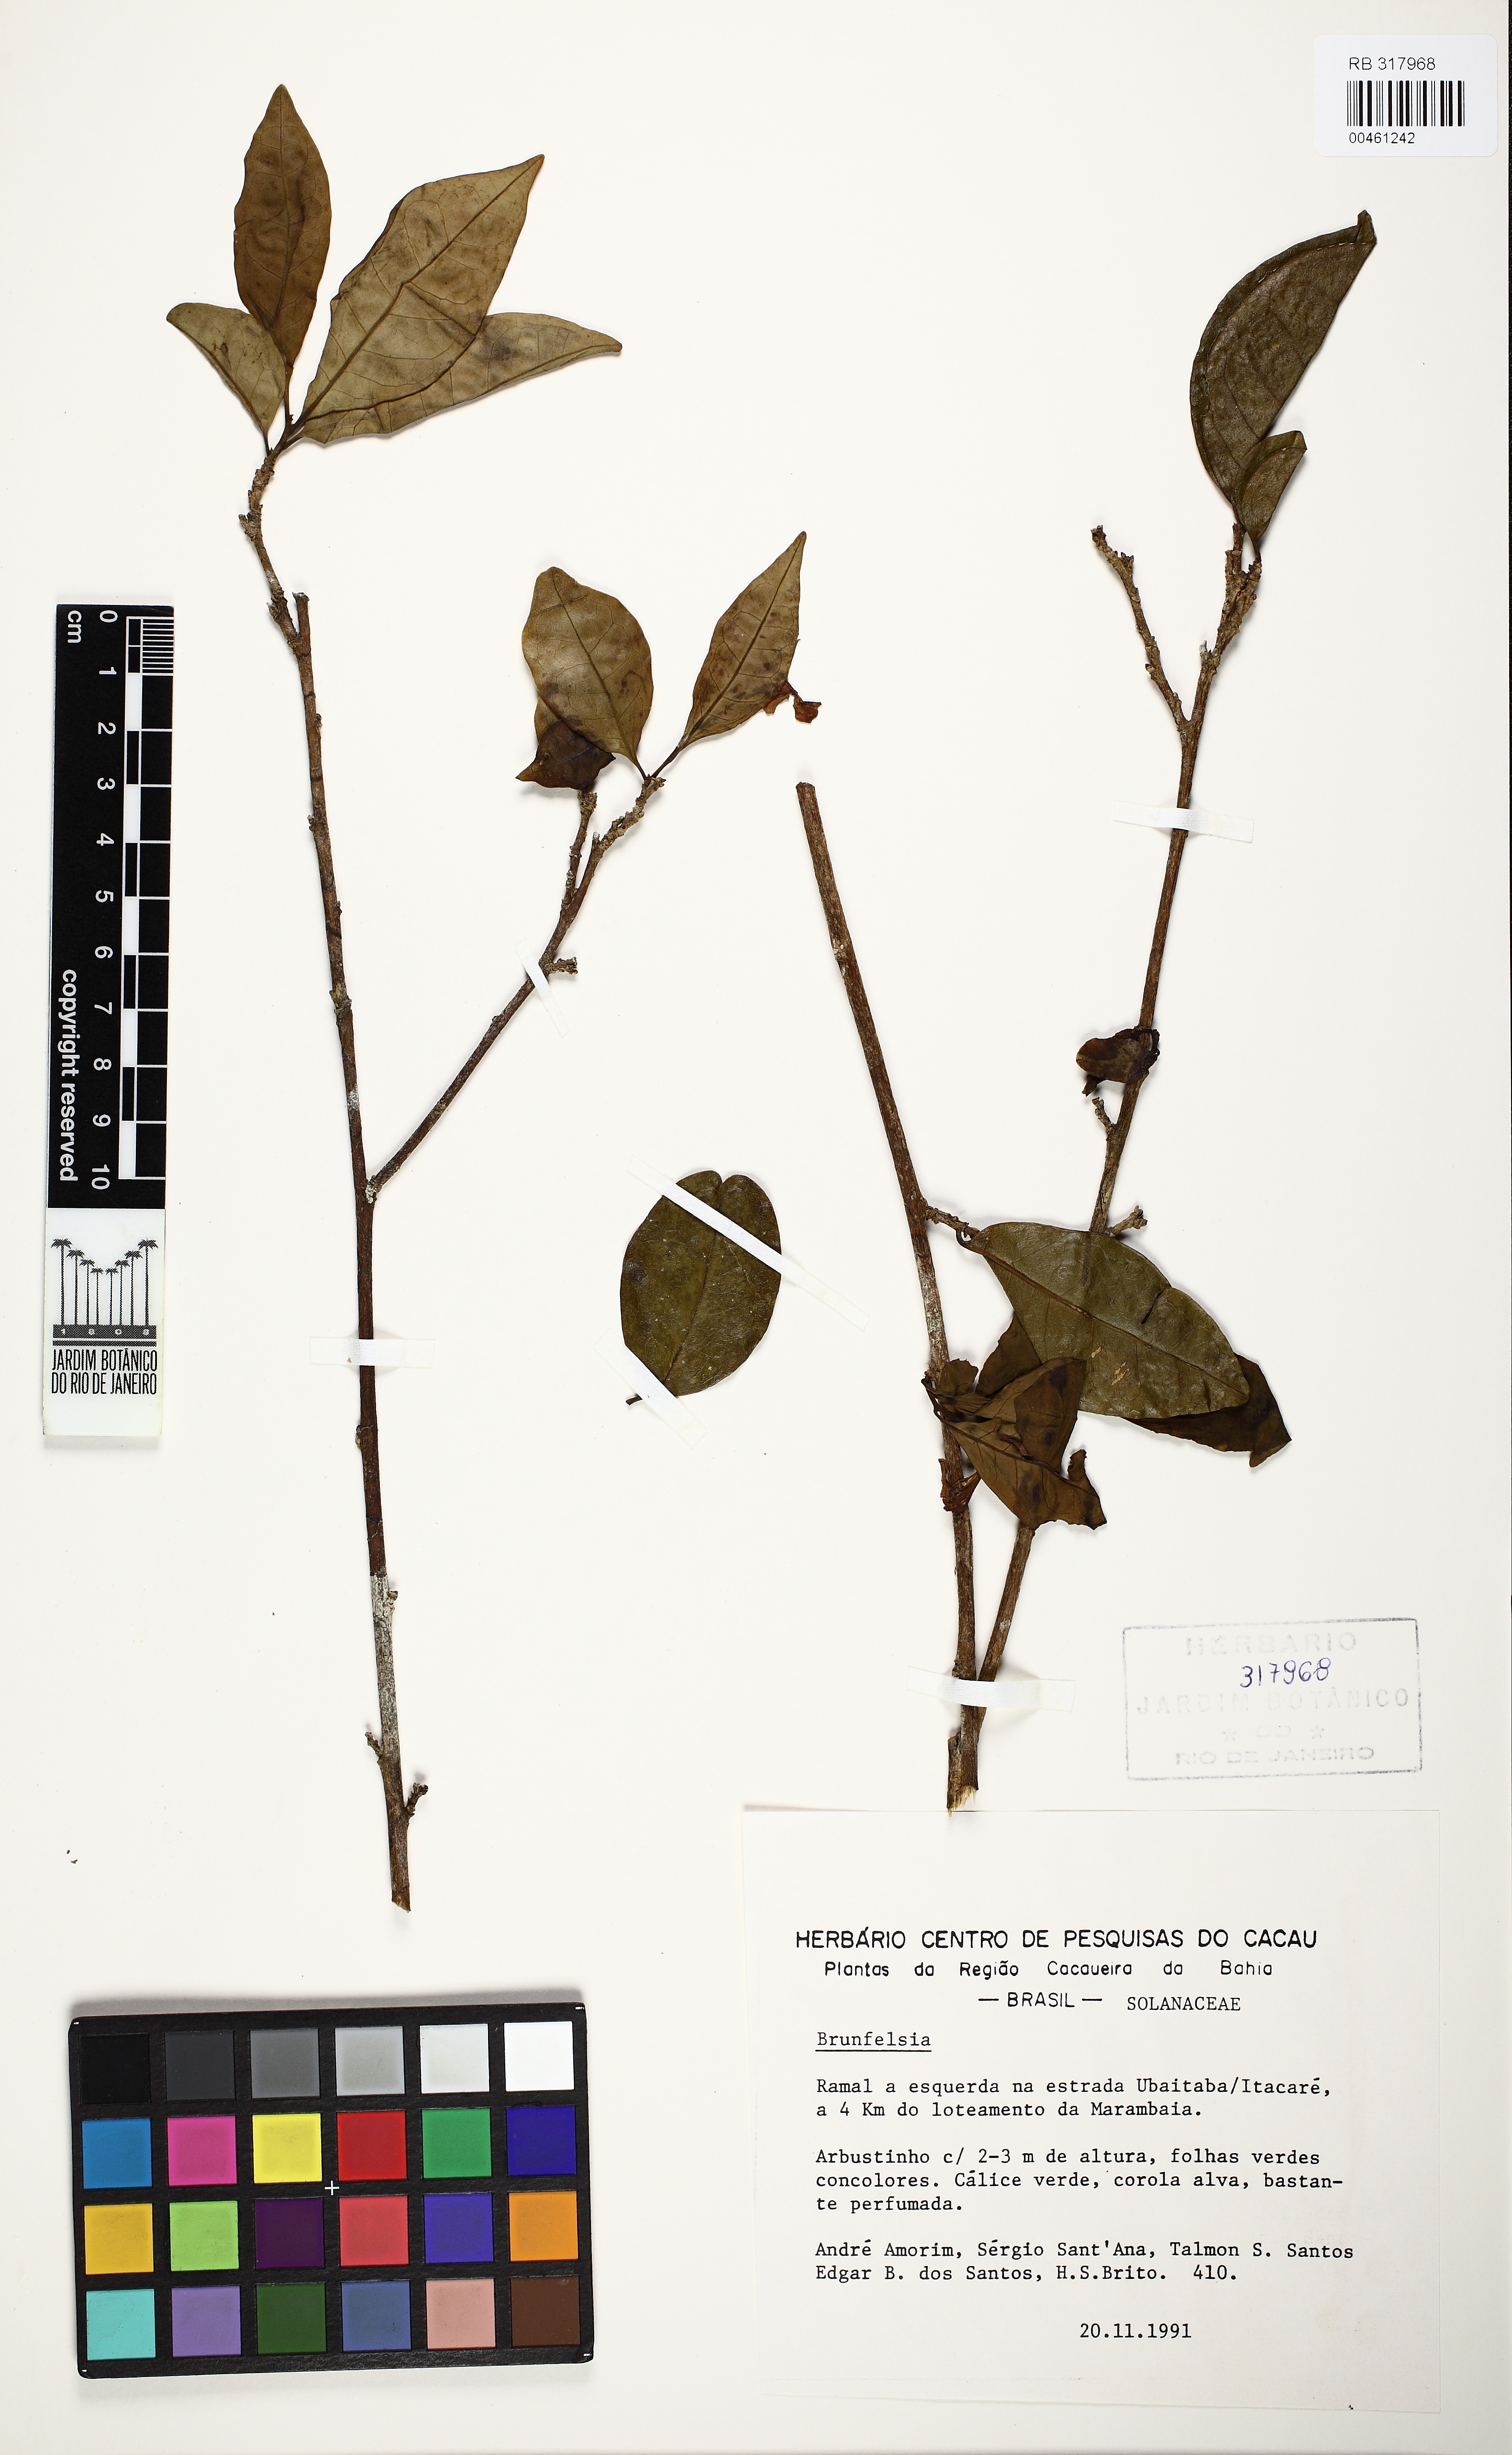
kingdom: Plantae
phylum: Tracheophyta
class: Magnoliopsida
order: Solanales
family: Solanaceae
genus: Brunfelsia
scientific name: Brunfelsia
